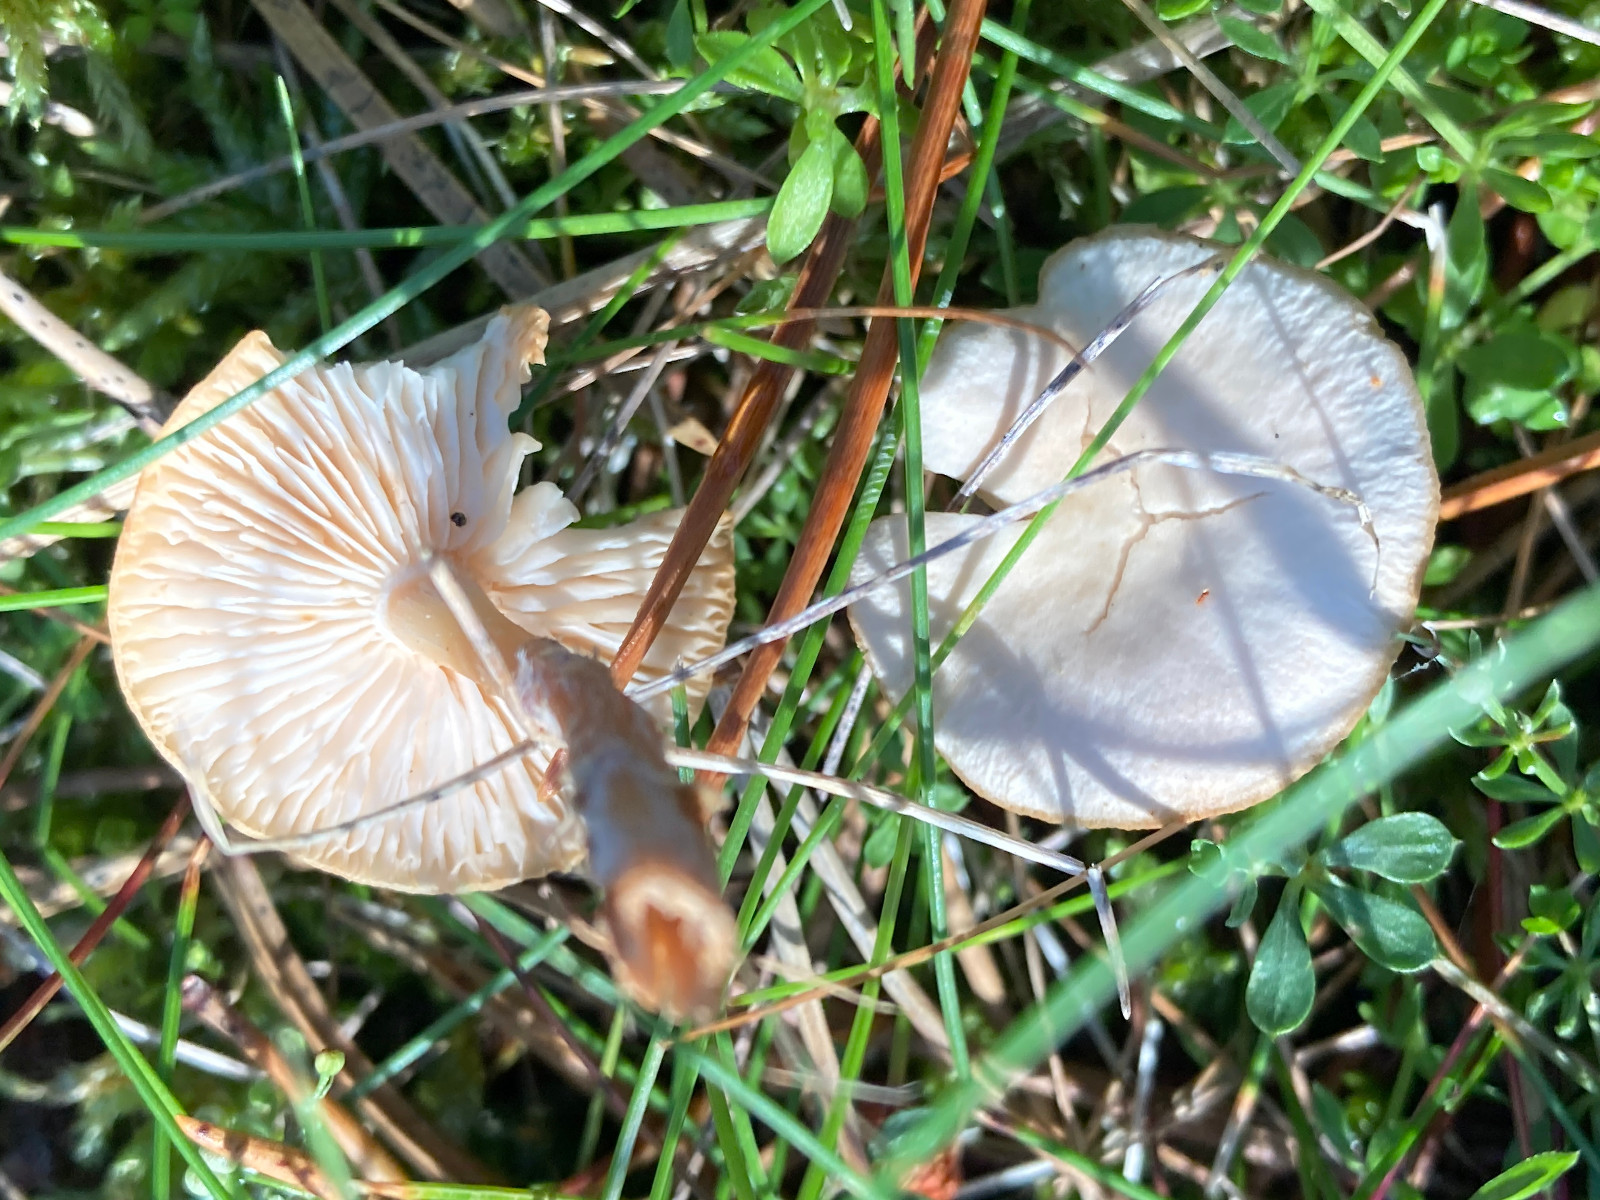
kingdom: Fungi
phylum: Basidiomycota
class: Agaricomycetes
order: Agaricales
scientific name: Agaricales
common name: champignonordenen
